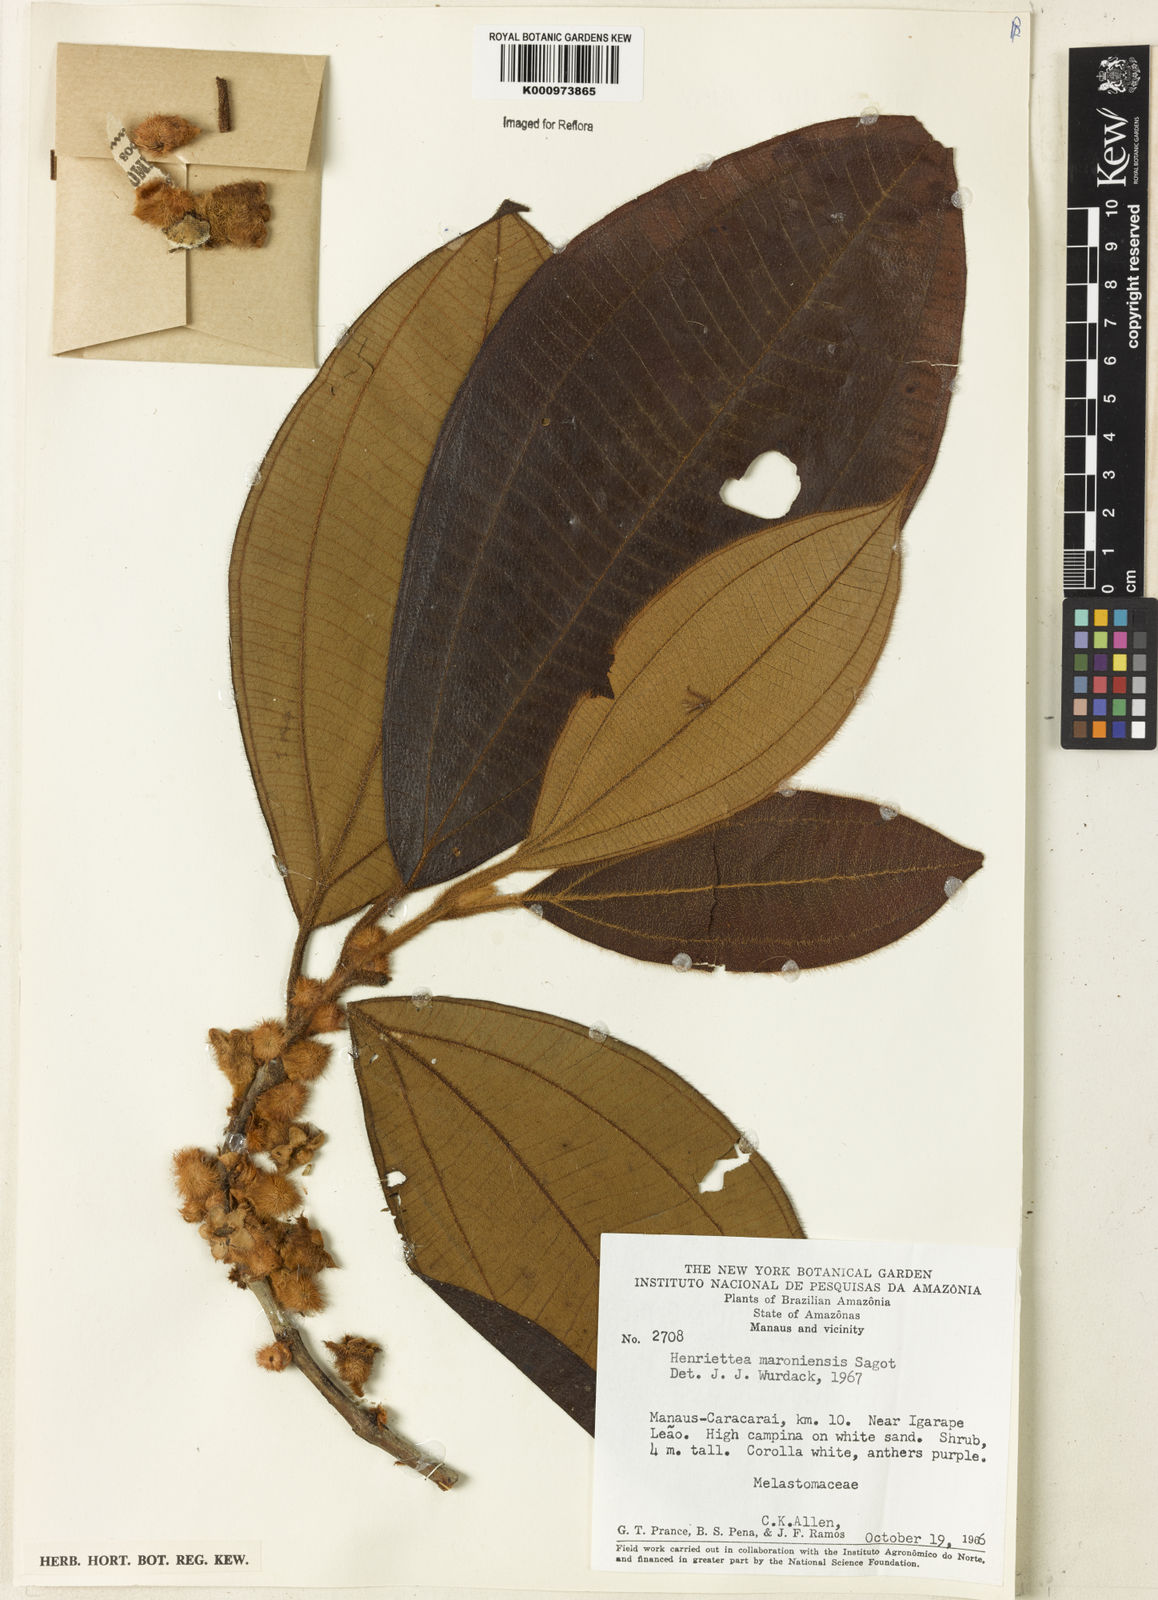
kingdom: Plantae
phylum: Tracheophyta
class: Magnoliopsida
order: Myrtales
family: Melastomataceae
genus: Henriettea
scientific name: Henriettea maroniensis
